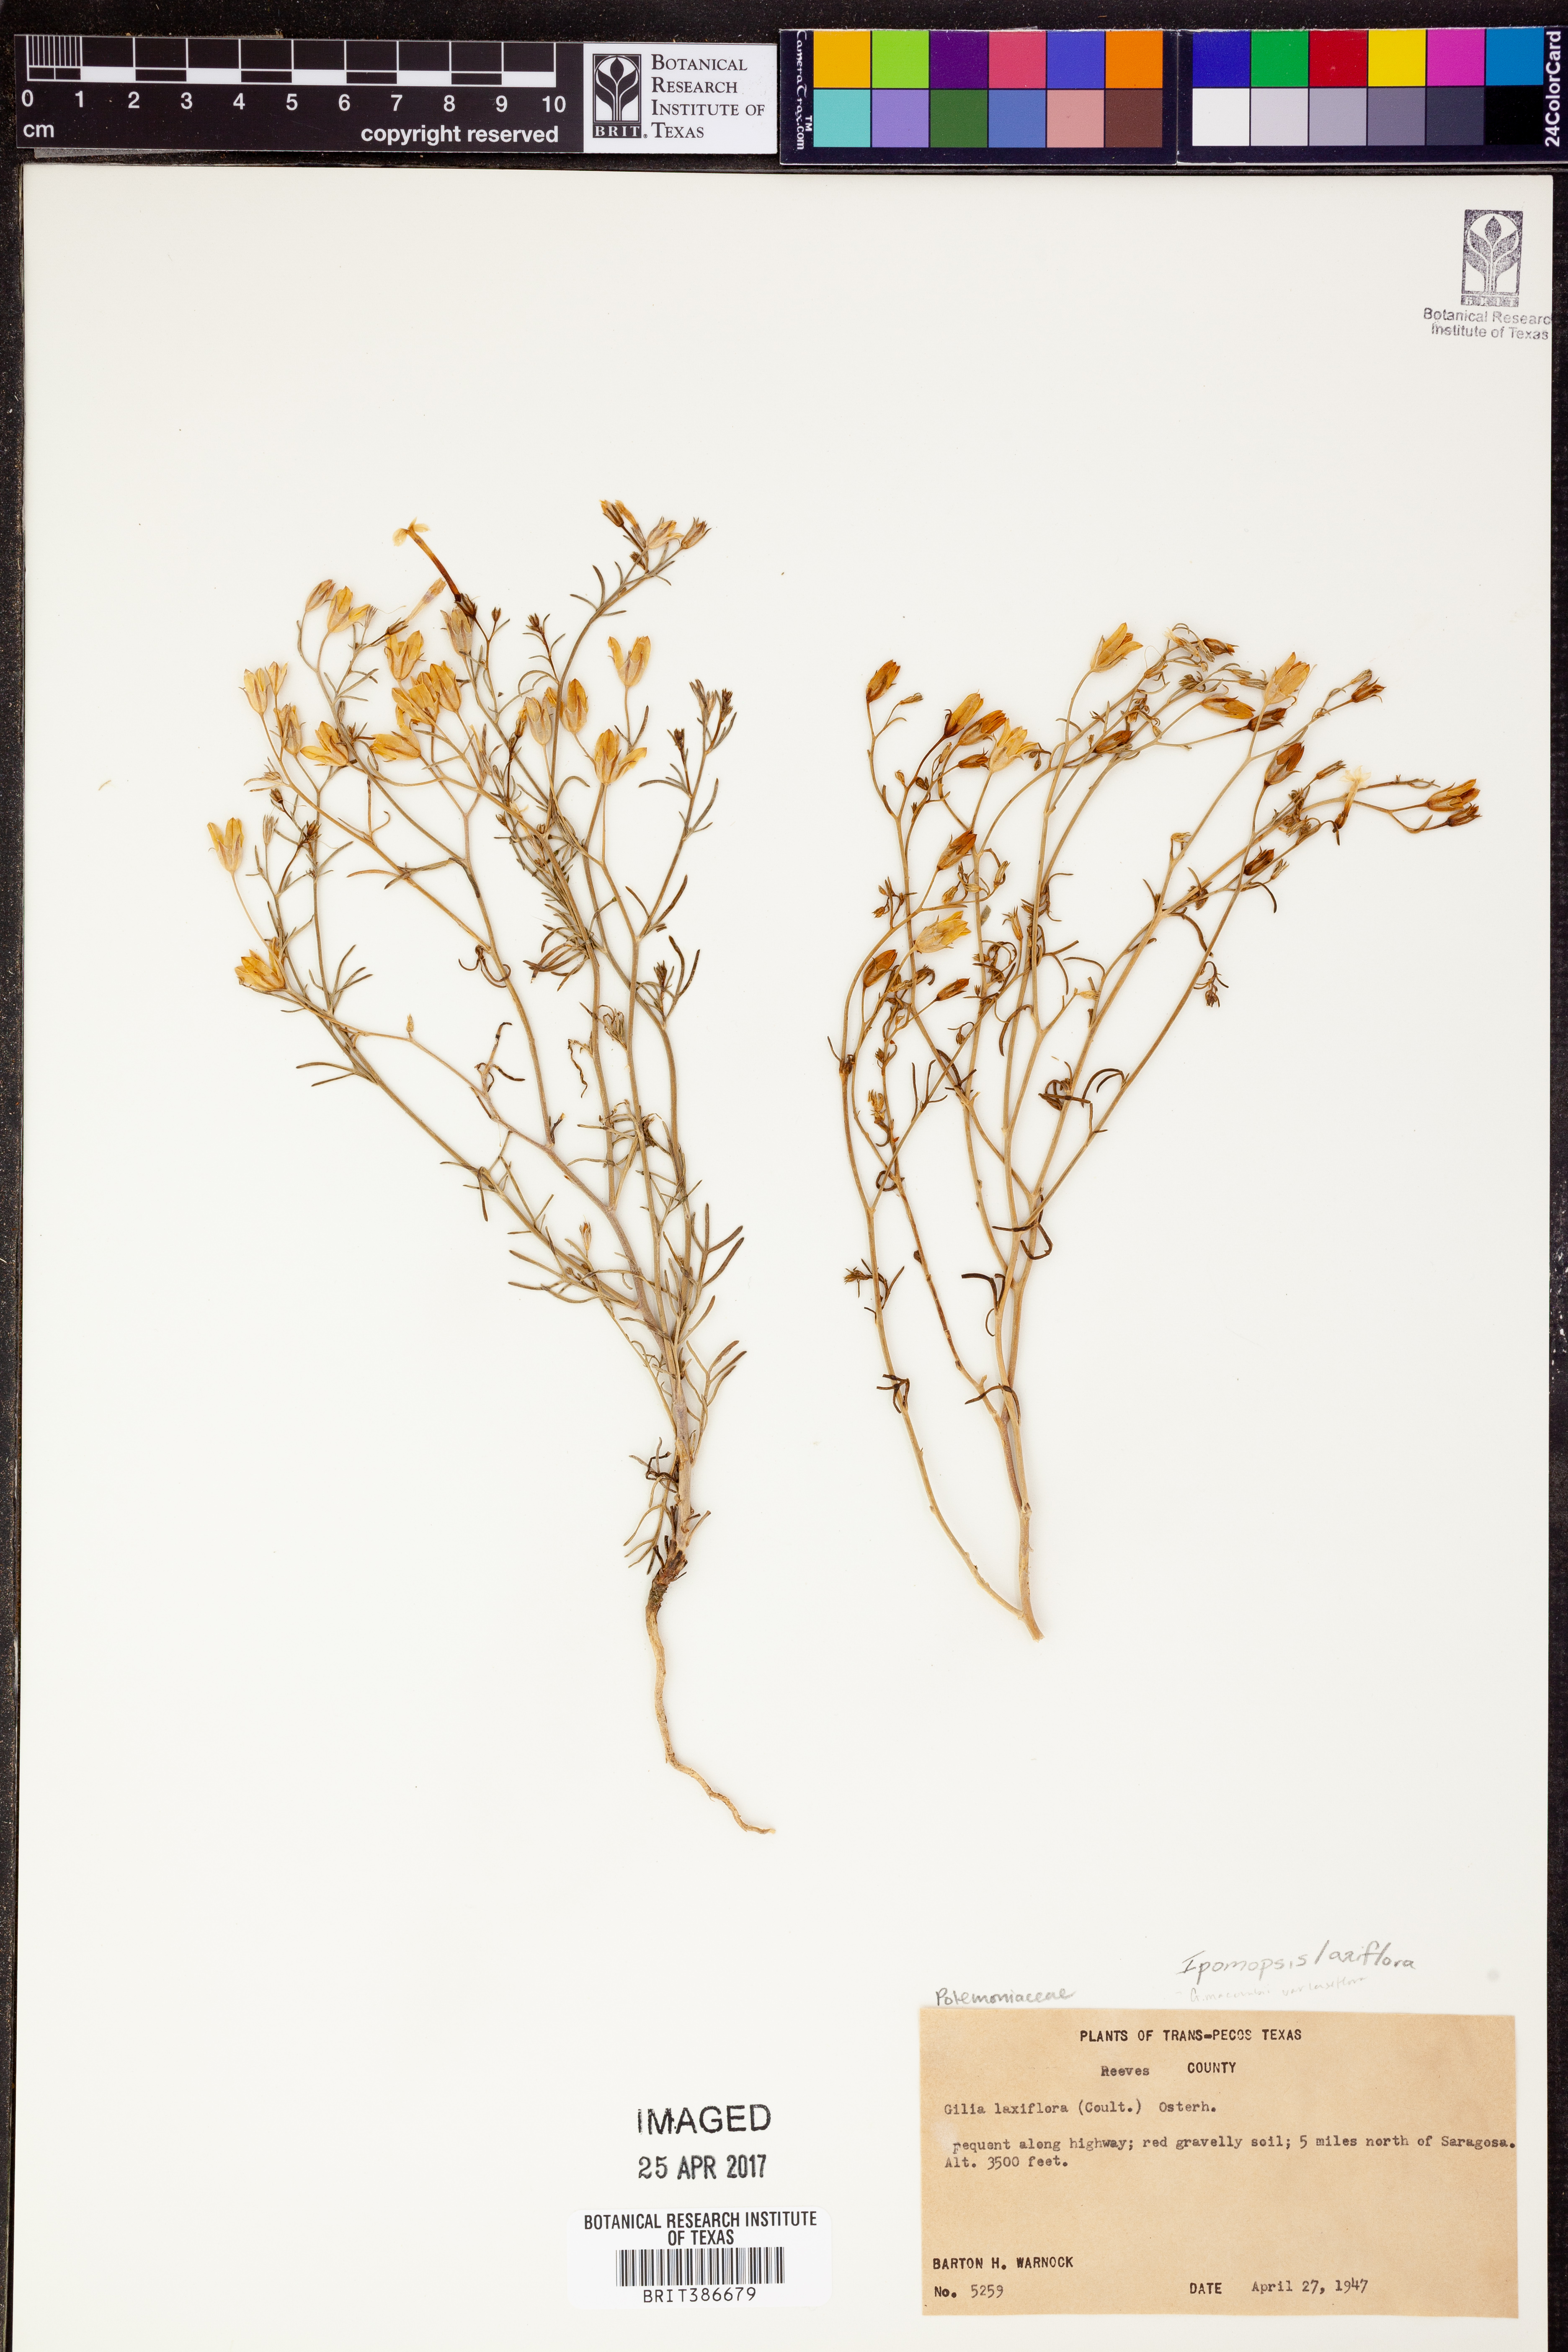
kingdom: Plantae
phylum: Tracheophyta
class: Magnoliopsida
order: Ericales
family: Polemoniaceae
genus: Ipomopsis
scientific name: Ipomopsis laxiflora
